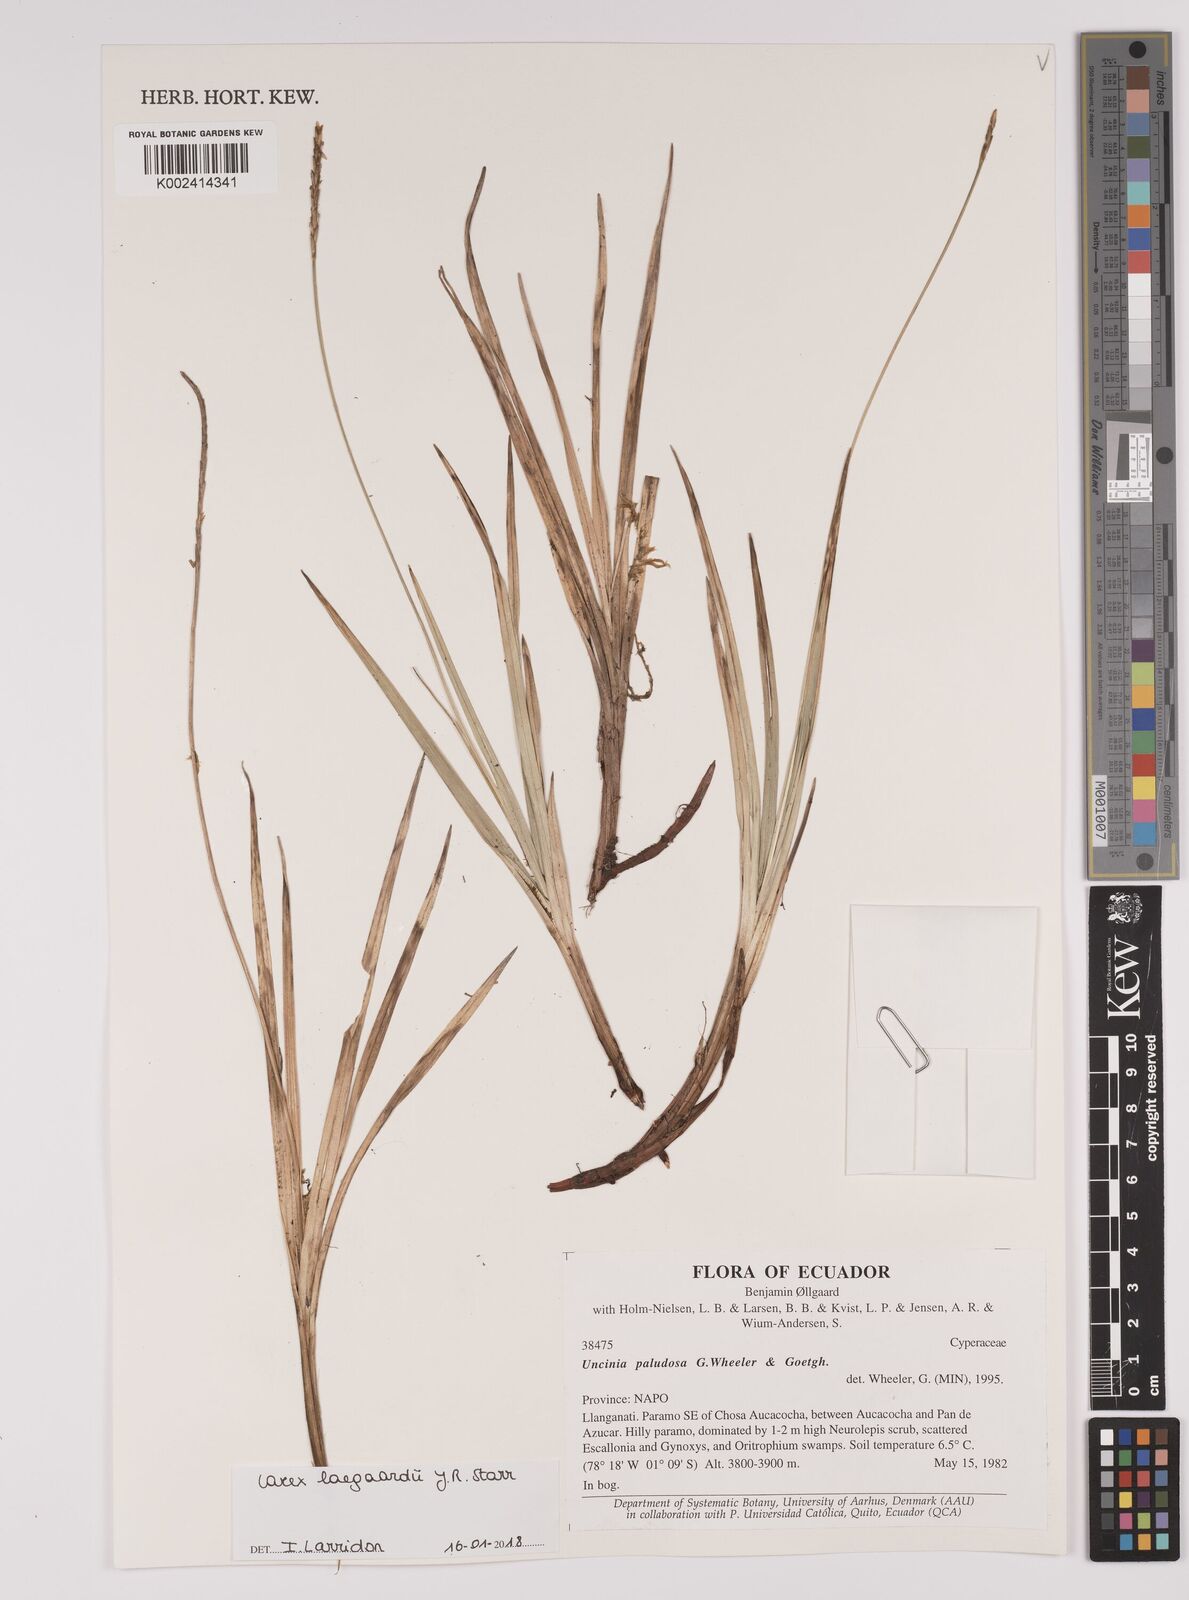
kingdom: Plantae
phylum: Tracheophyta
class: Liliopsida
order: Poales
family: Cyperaceae
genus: Carex
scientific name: Carex laegaardii
